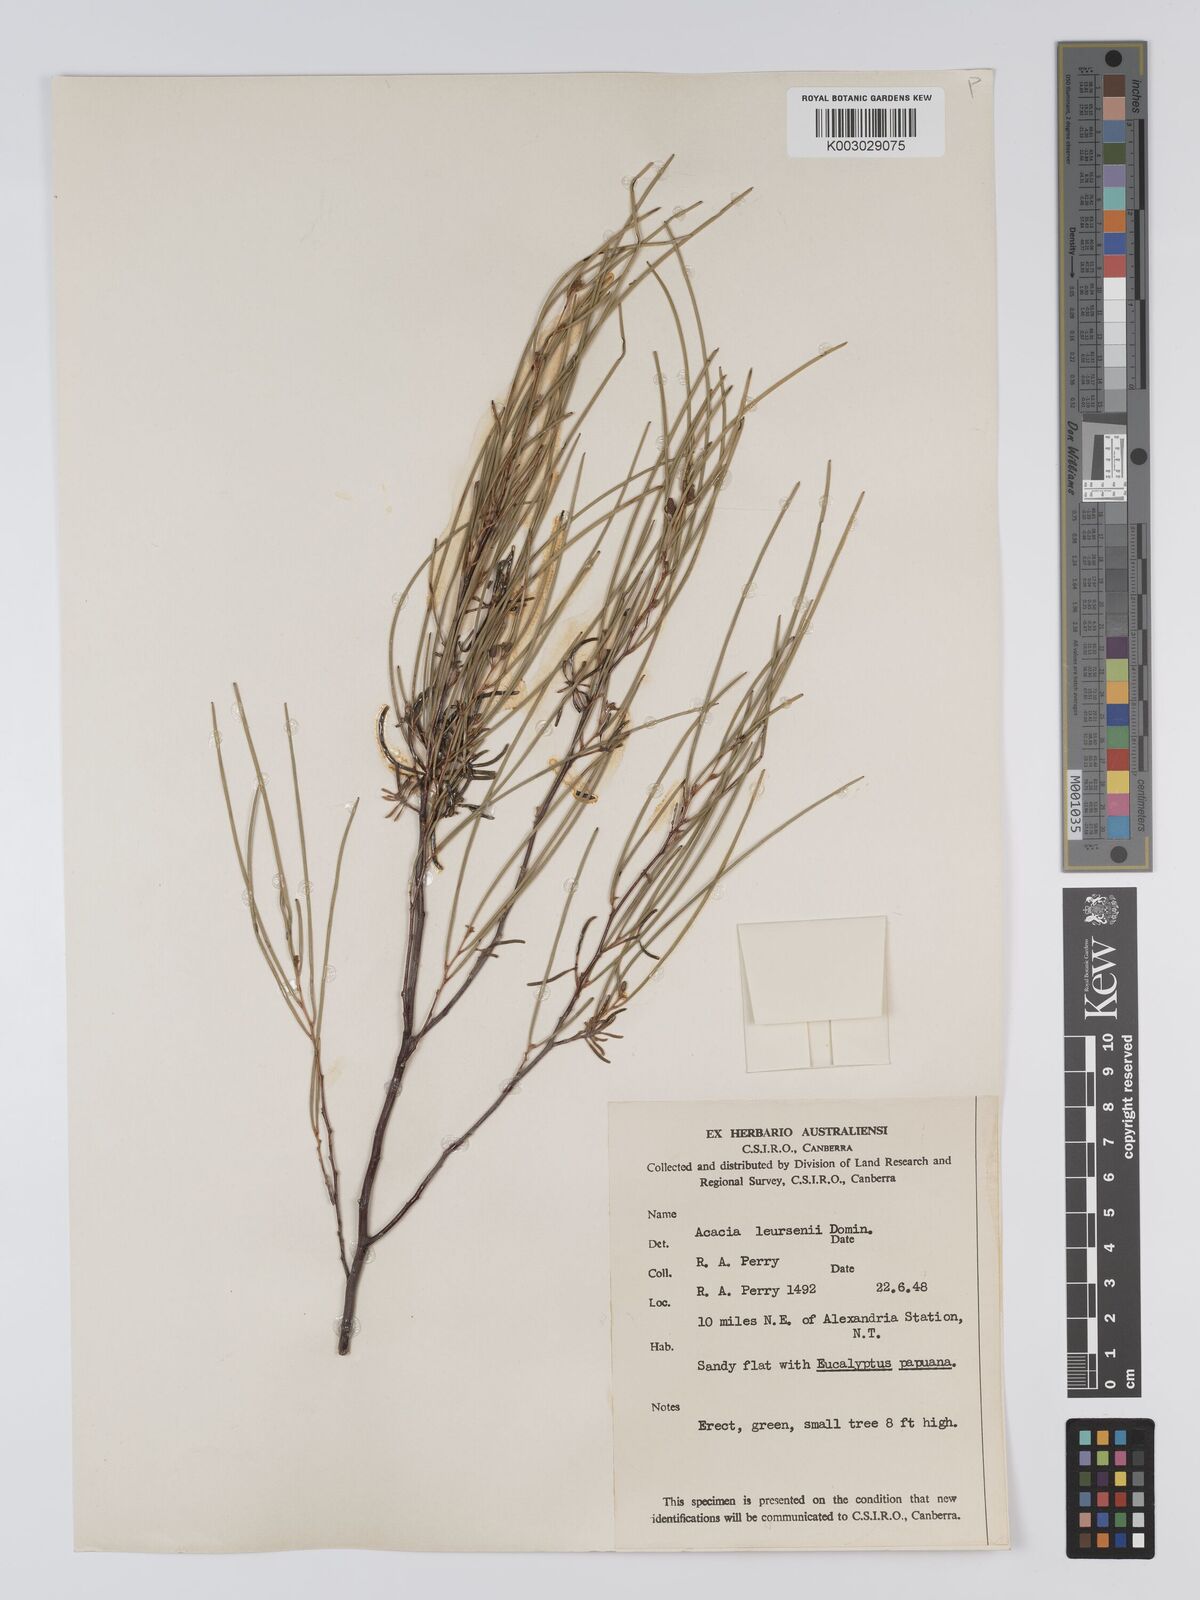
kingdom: Plantae
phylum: Tracheophyta
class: Magnoliopsida
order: Fabales
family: Fabaceae
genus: Acacia
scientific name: Acacia tenuissima
